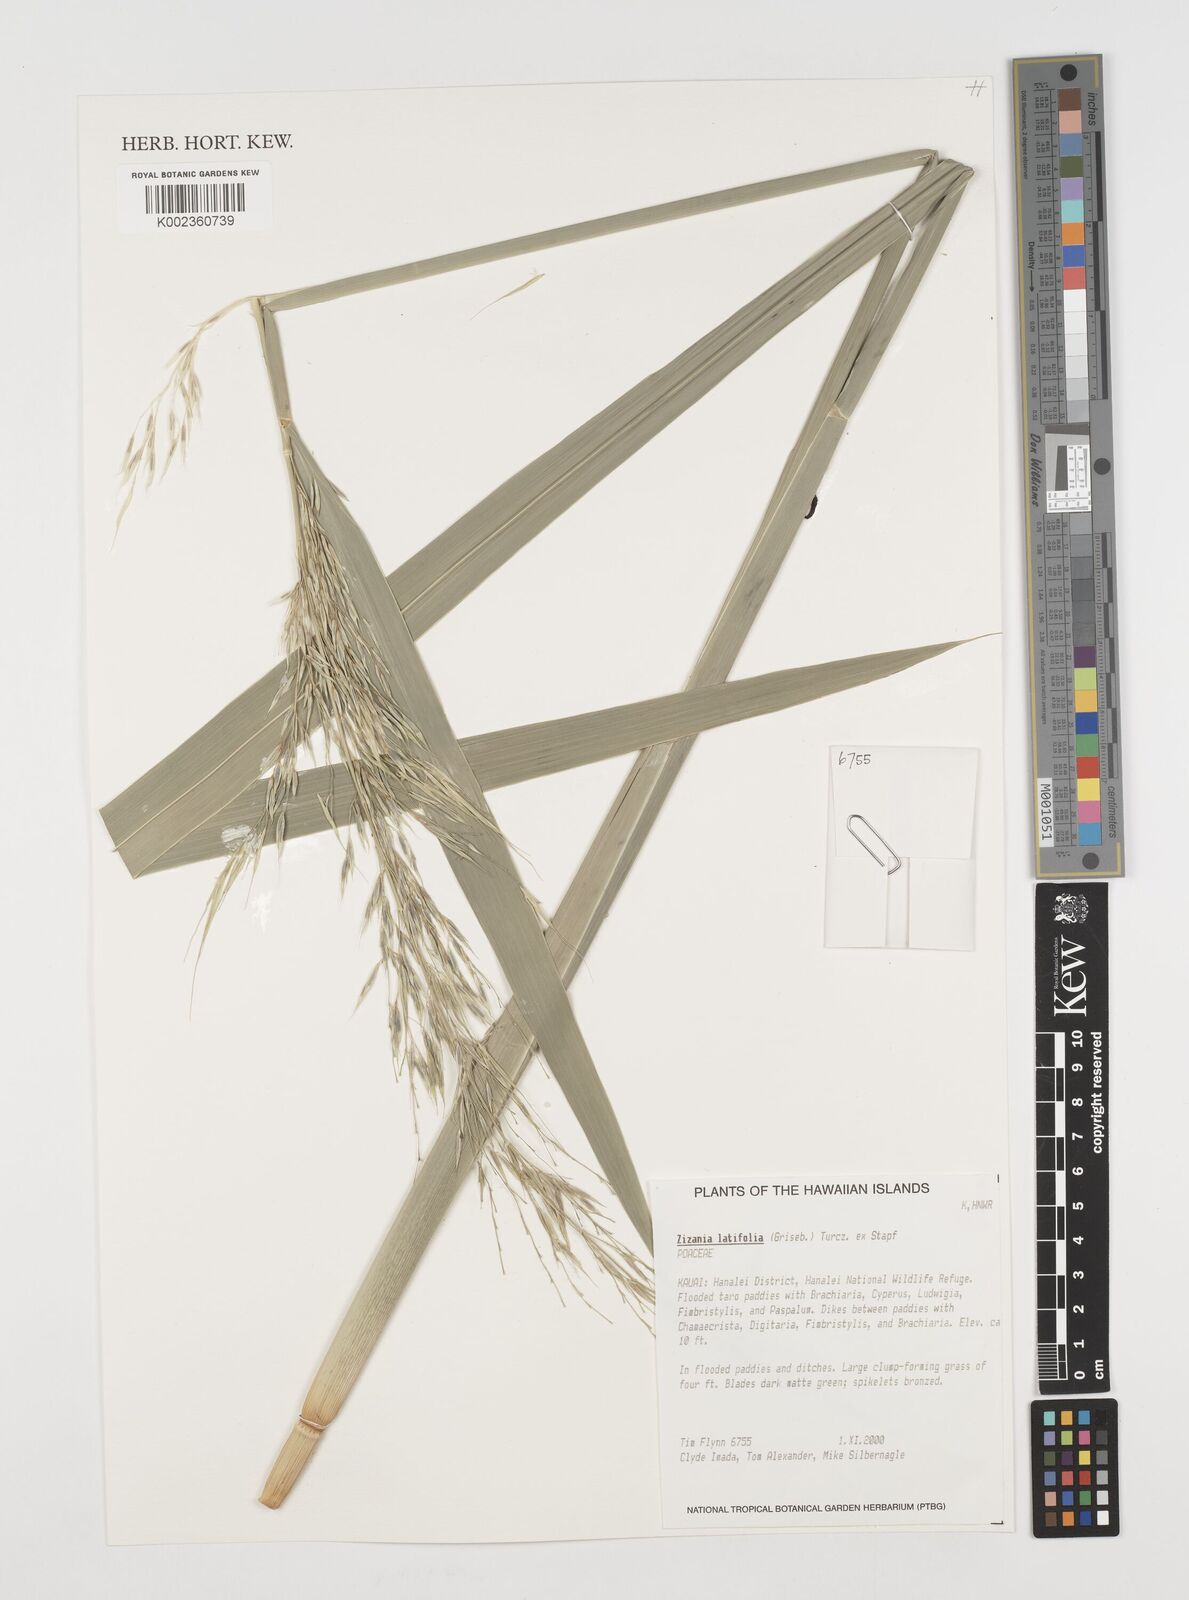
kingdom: Plantae
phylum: Tracheophyta
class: Liliopsida
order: Poales
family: Poaceae
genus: Zizania
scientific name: Zizania latifolia
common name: Manchurian wildrice
